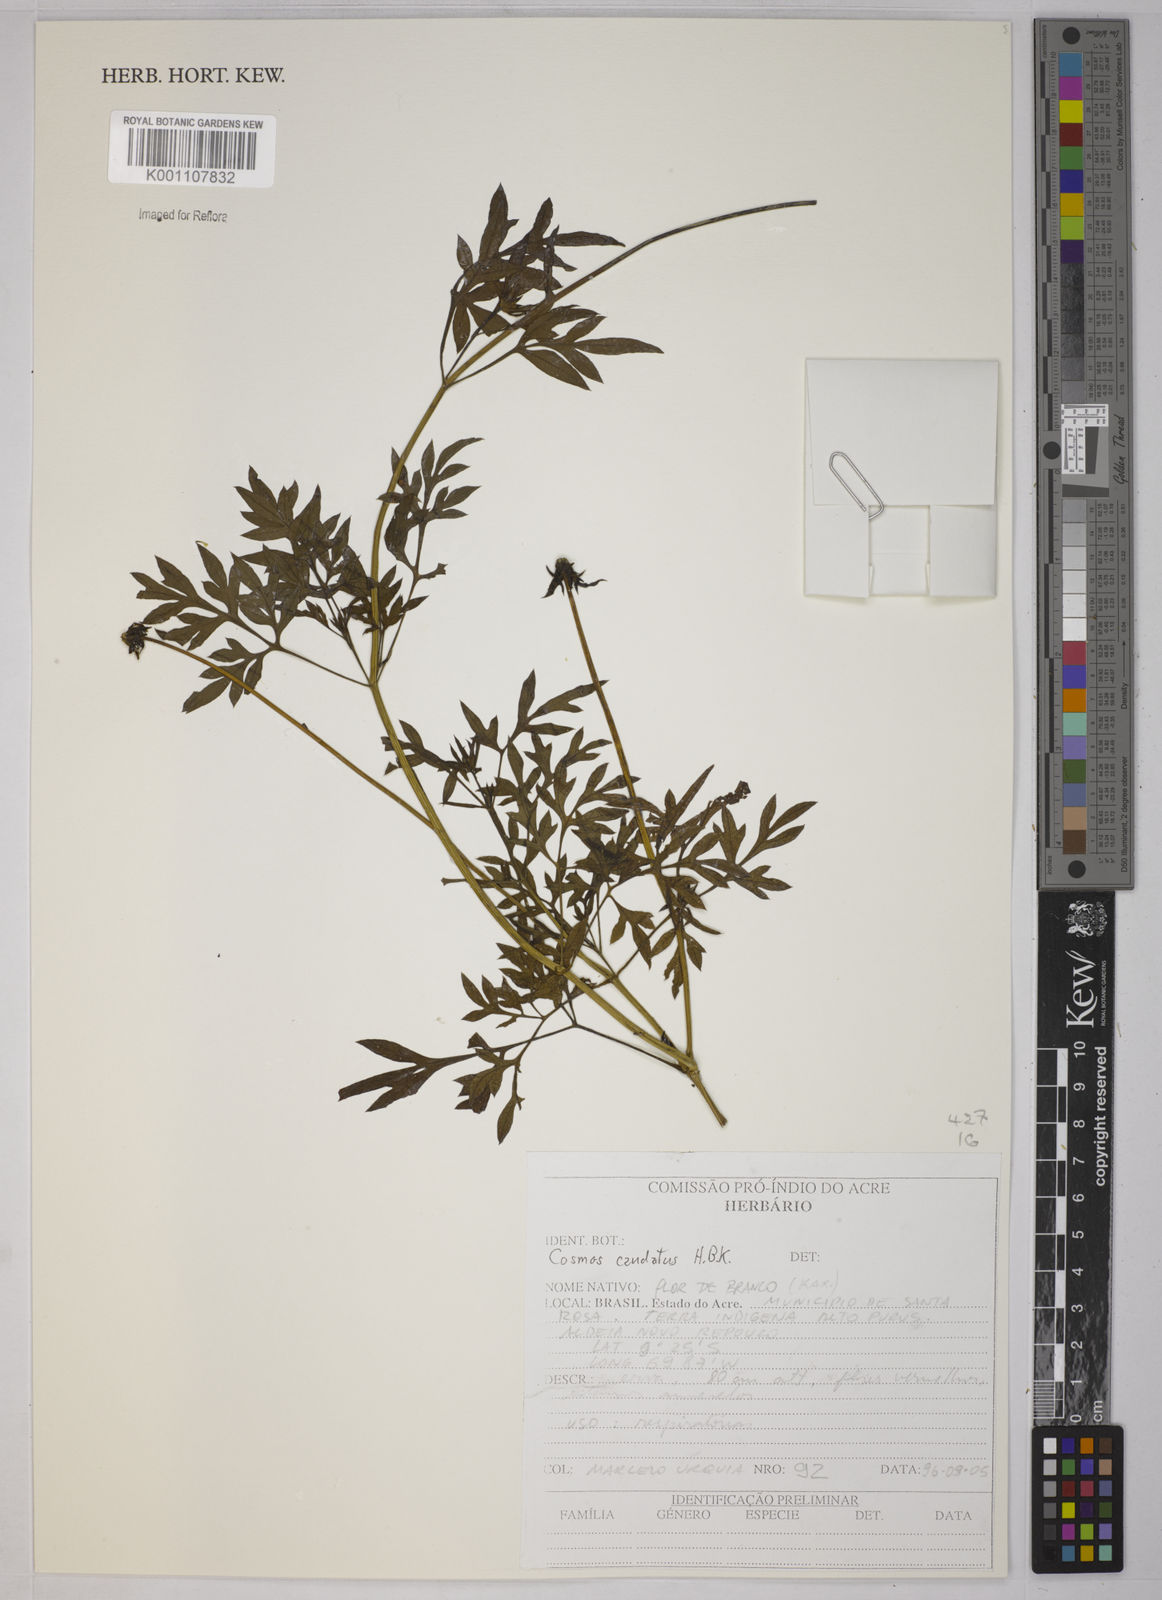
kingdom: Plantae
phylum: Tracheophyta
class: Magnoliopsida
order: Asterales
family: Asteraceae
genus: Cosmos
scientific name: Cosmos caudatus
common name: Wild cosmos
